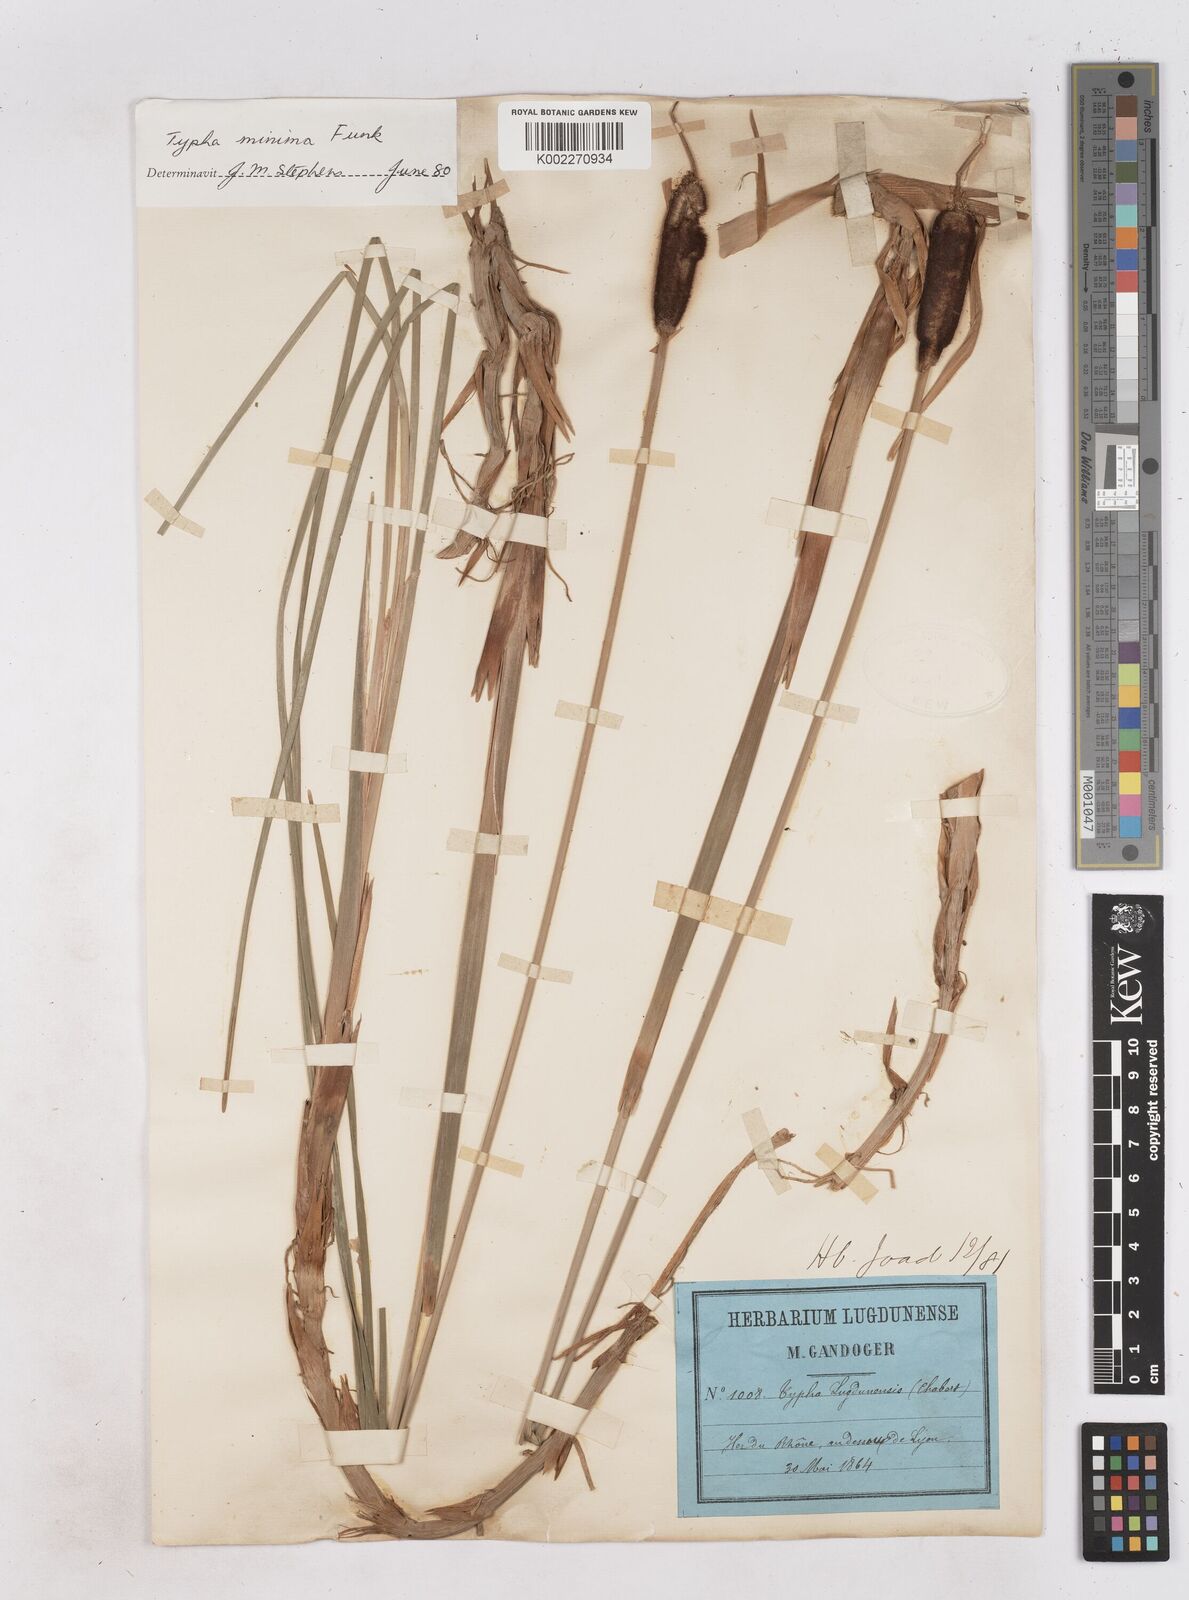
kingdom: Plantae
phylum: Tracheophyta
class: Liliopsida
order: Poales
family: Typhaceae
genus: Typha
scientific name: Typha
